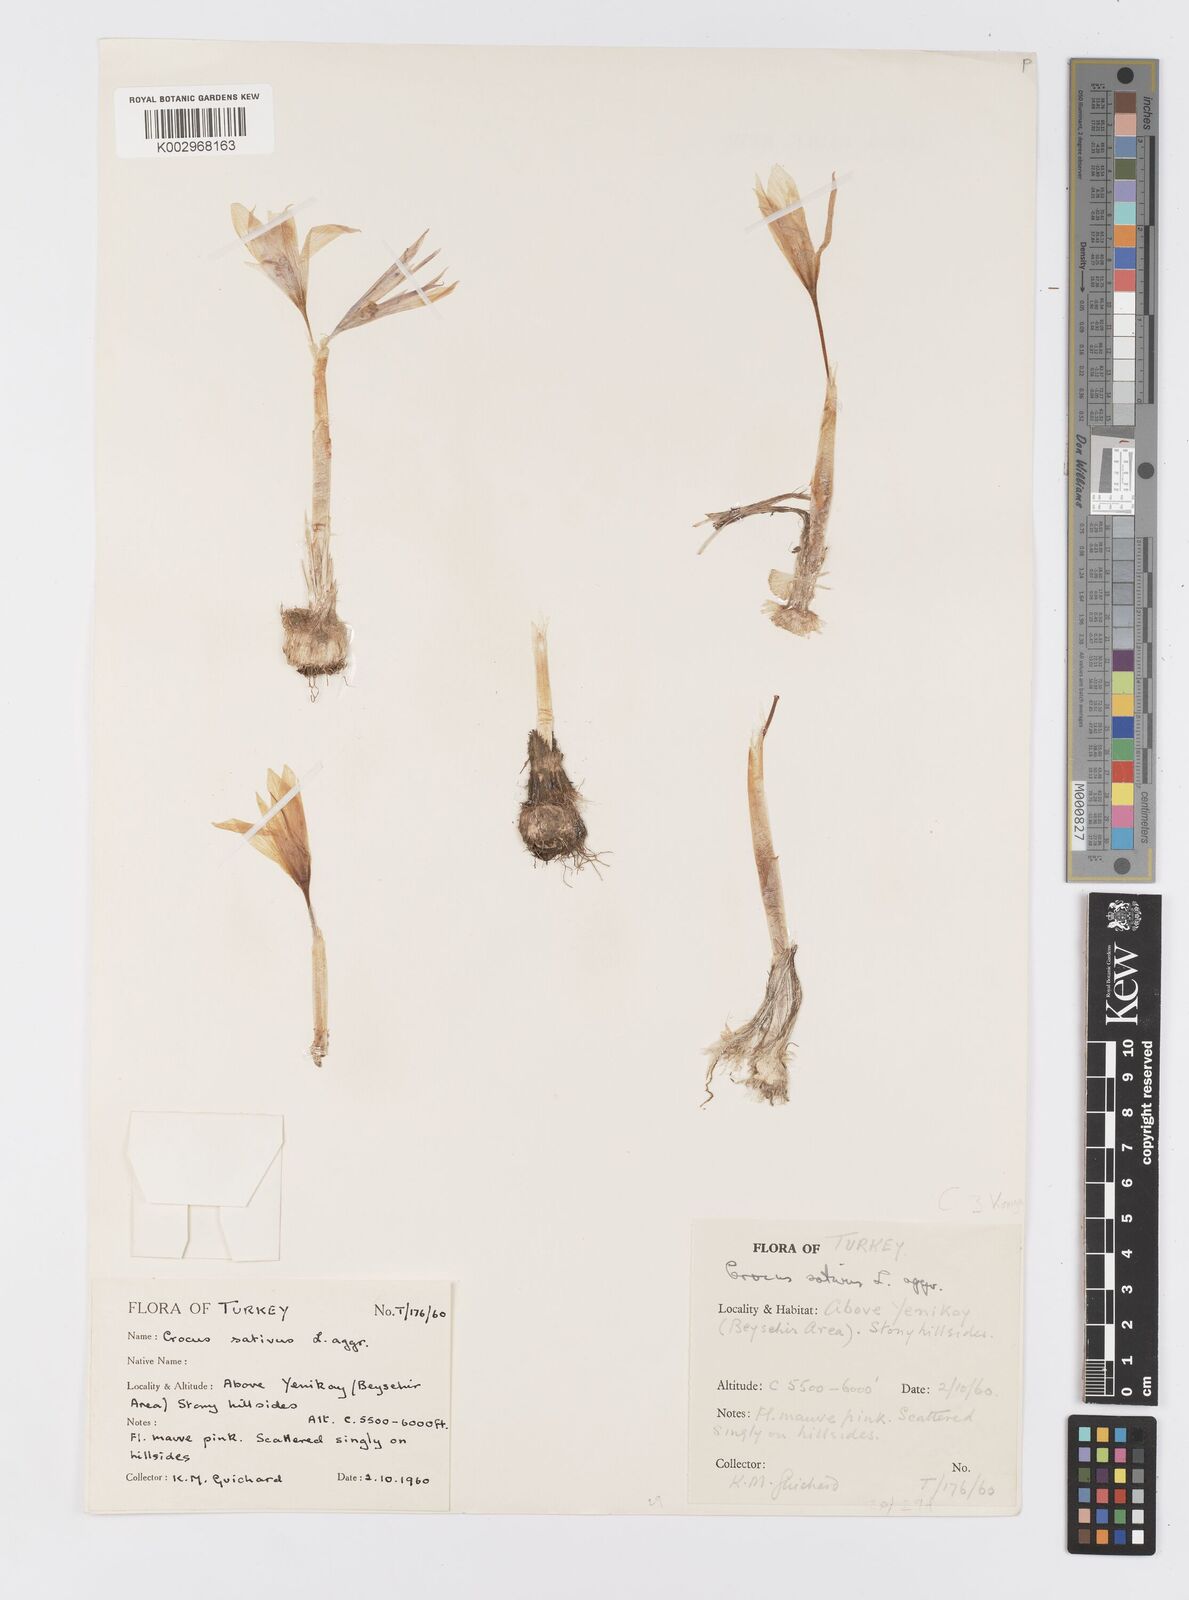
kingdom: Plantae
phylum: Tracheophyta
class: Liliopsida
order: Asparagales
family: Iridaceae
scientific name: Iridaceae
